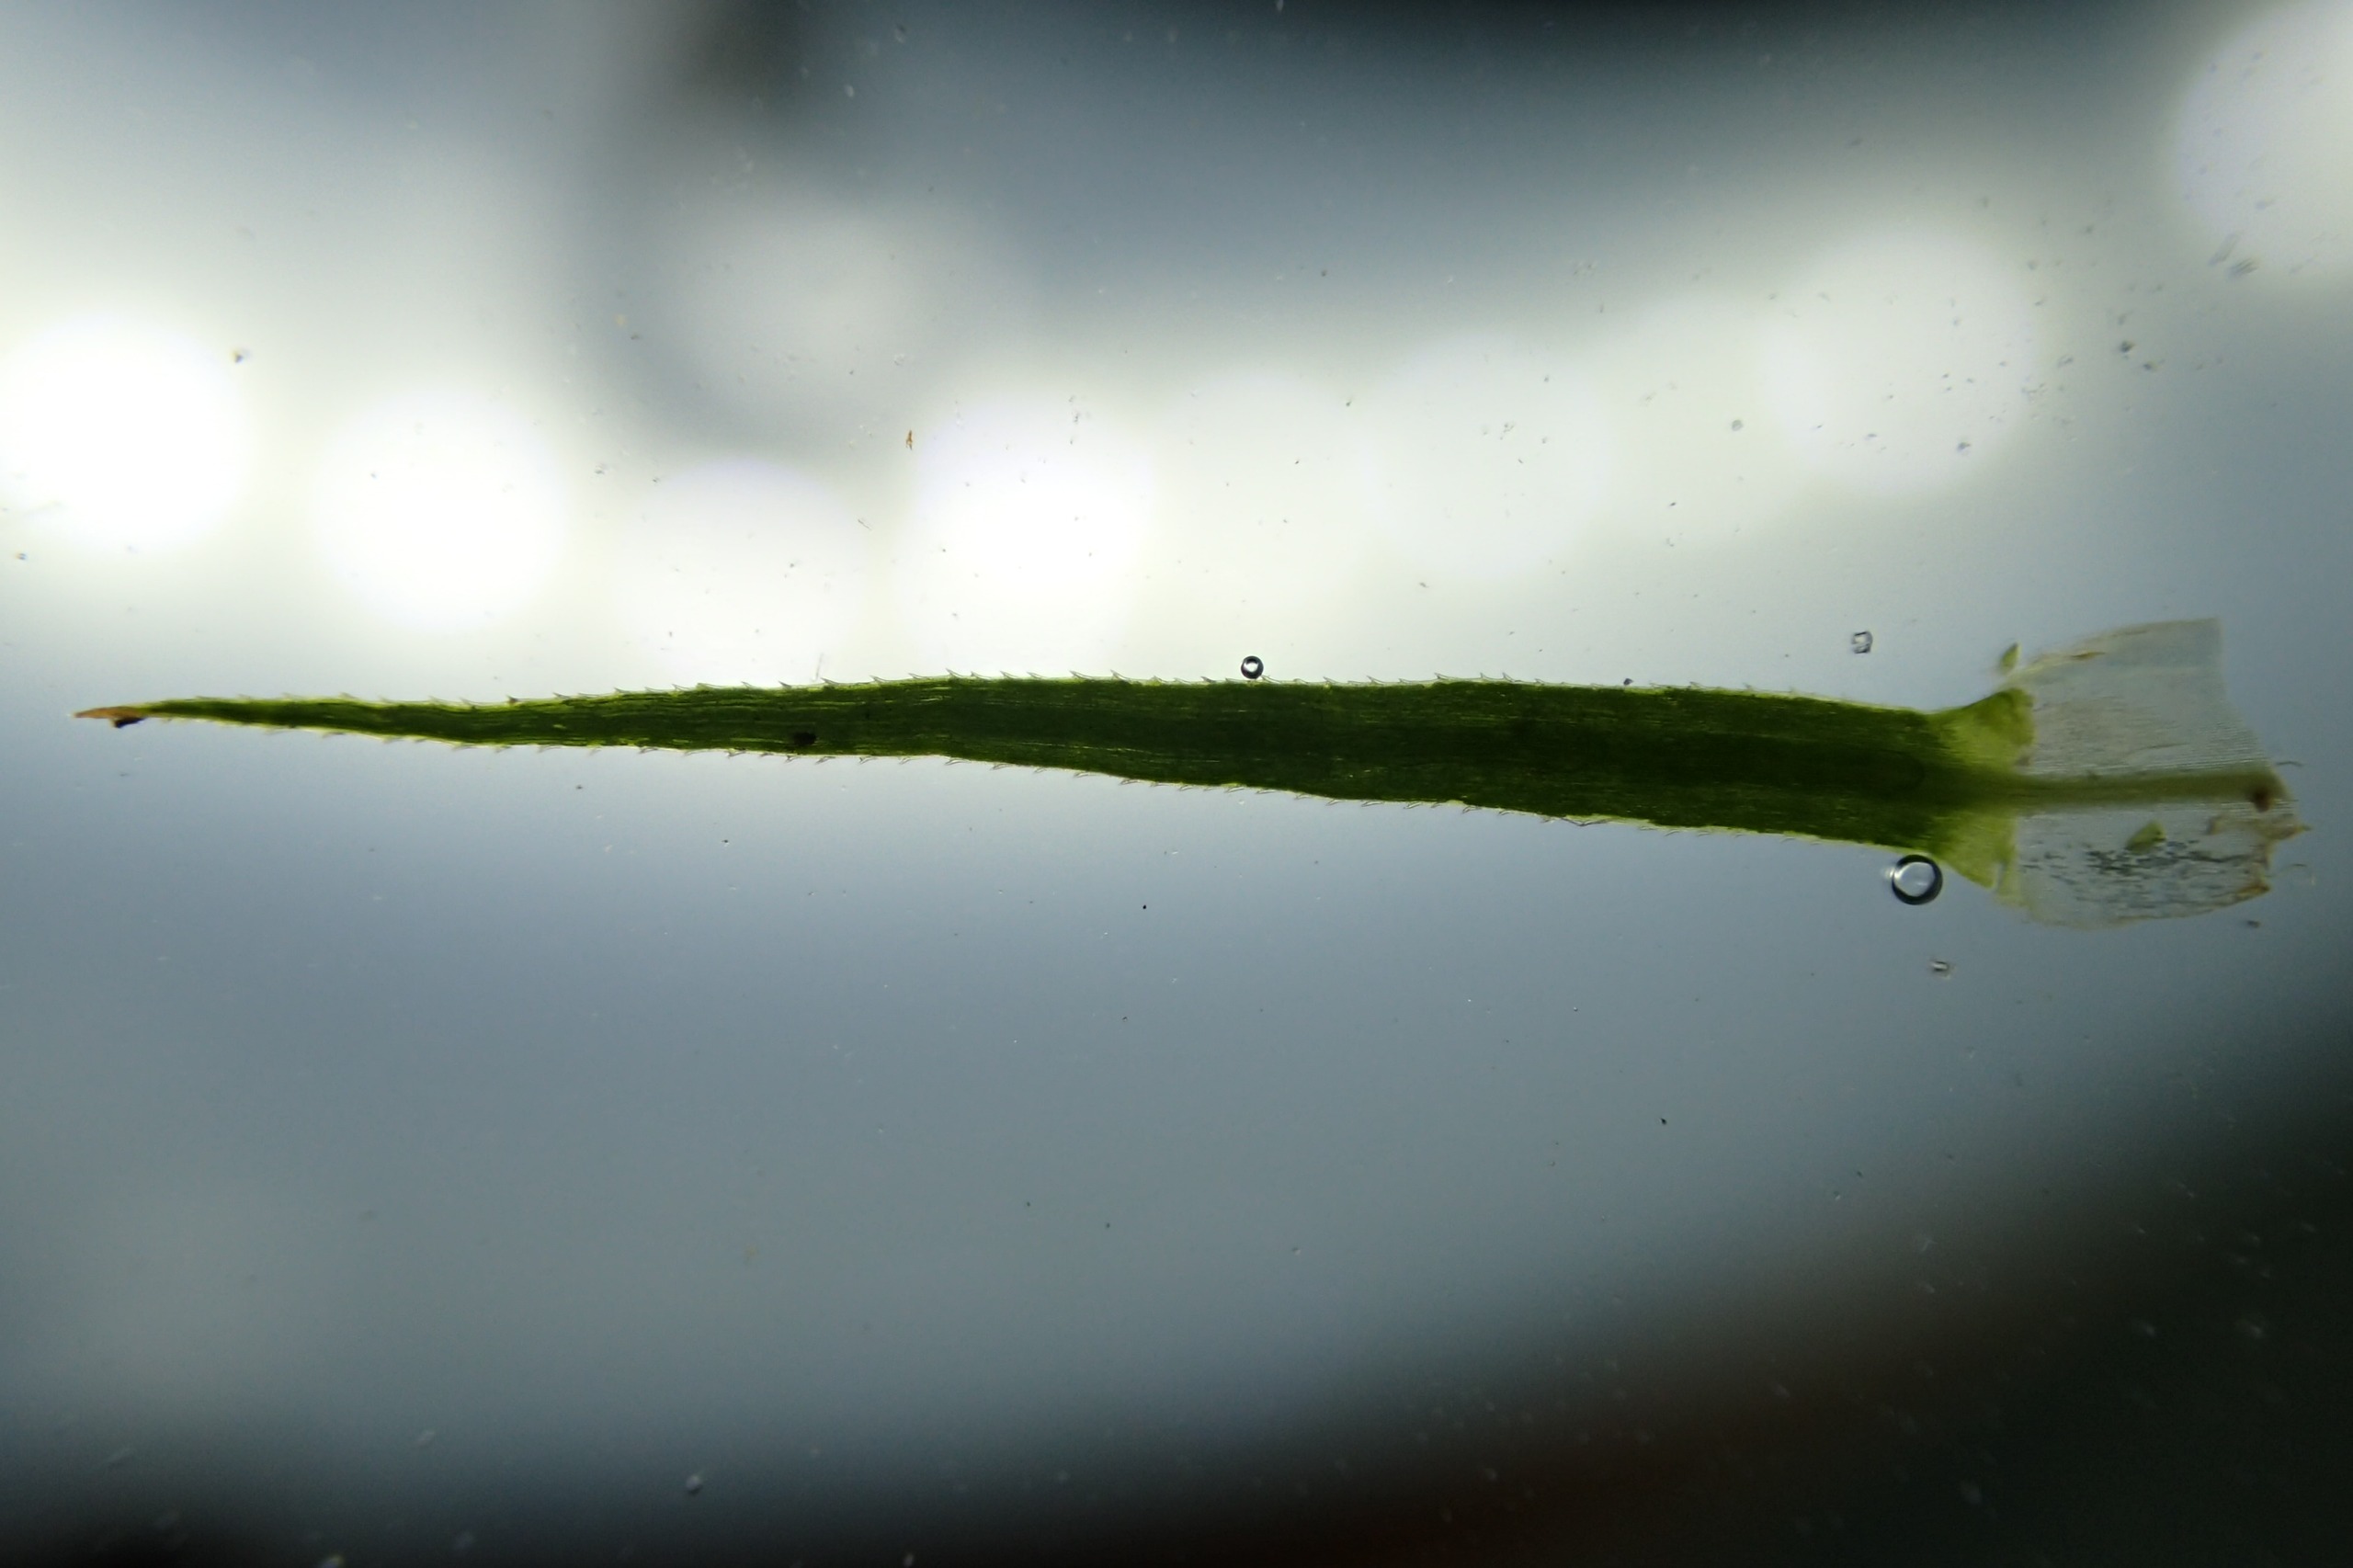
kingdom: Plantae
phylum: Bryophyta
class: Polytrichopsida
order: Polytrichales
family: Polytrichaceae
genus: Polytrichum
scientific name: Polytrichum commune
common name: Almindelig jomfruhår
